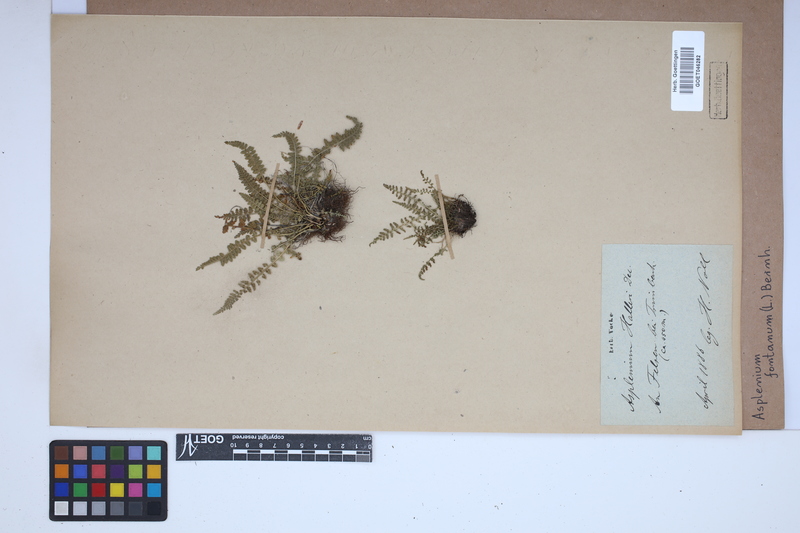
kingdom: Plantae
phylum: Tracheophyta
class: Polypodiopsida
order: Polypodiales
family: Aspleniaceae
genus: Asplenium
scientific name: Asplenium fontanum
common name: Fountain spleenwort
